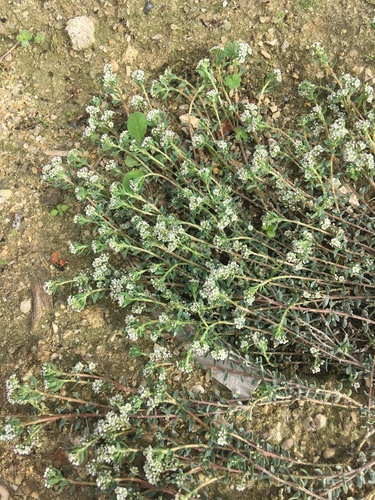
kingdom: Plantae
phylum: Tracheophyta
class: Magnoliopsida
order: Caryophyllales
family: Caryophyllaceae
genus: Corrigiola
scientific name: Corrigiola litoralis
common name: Strapwort
